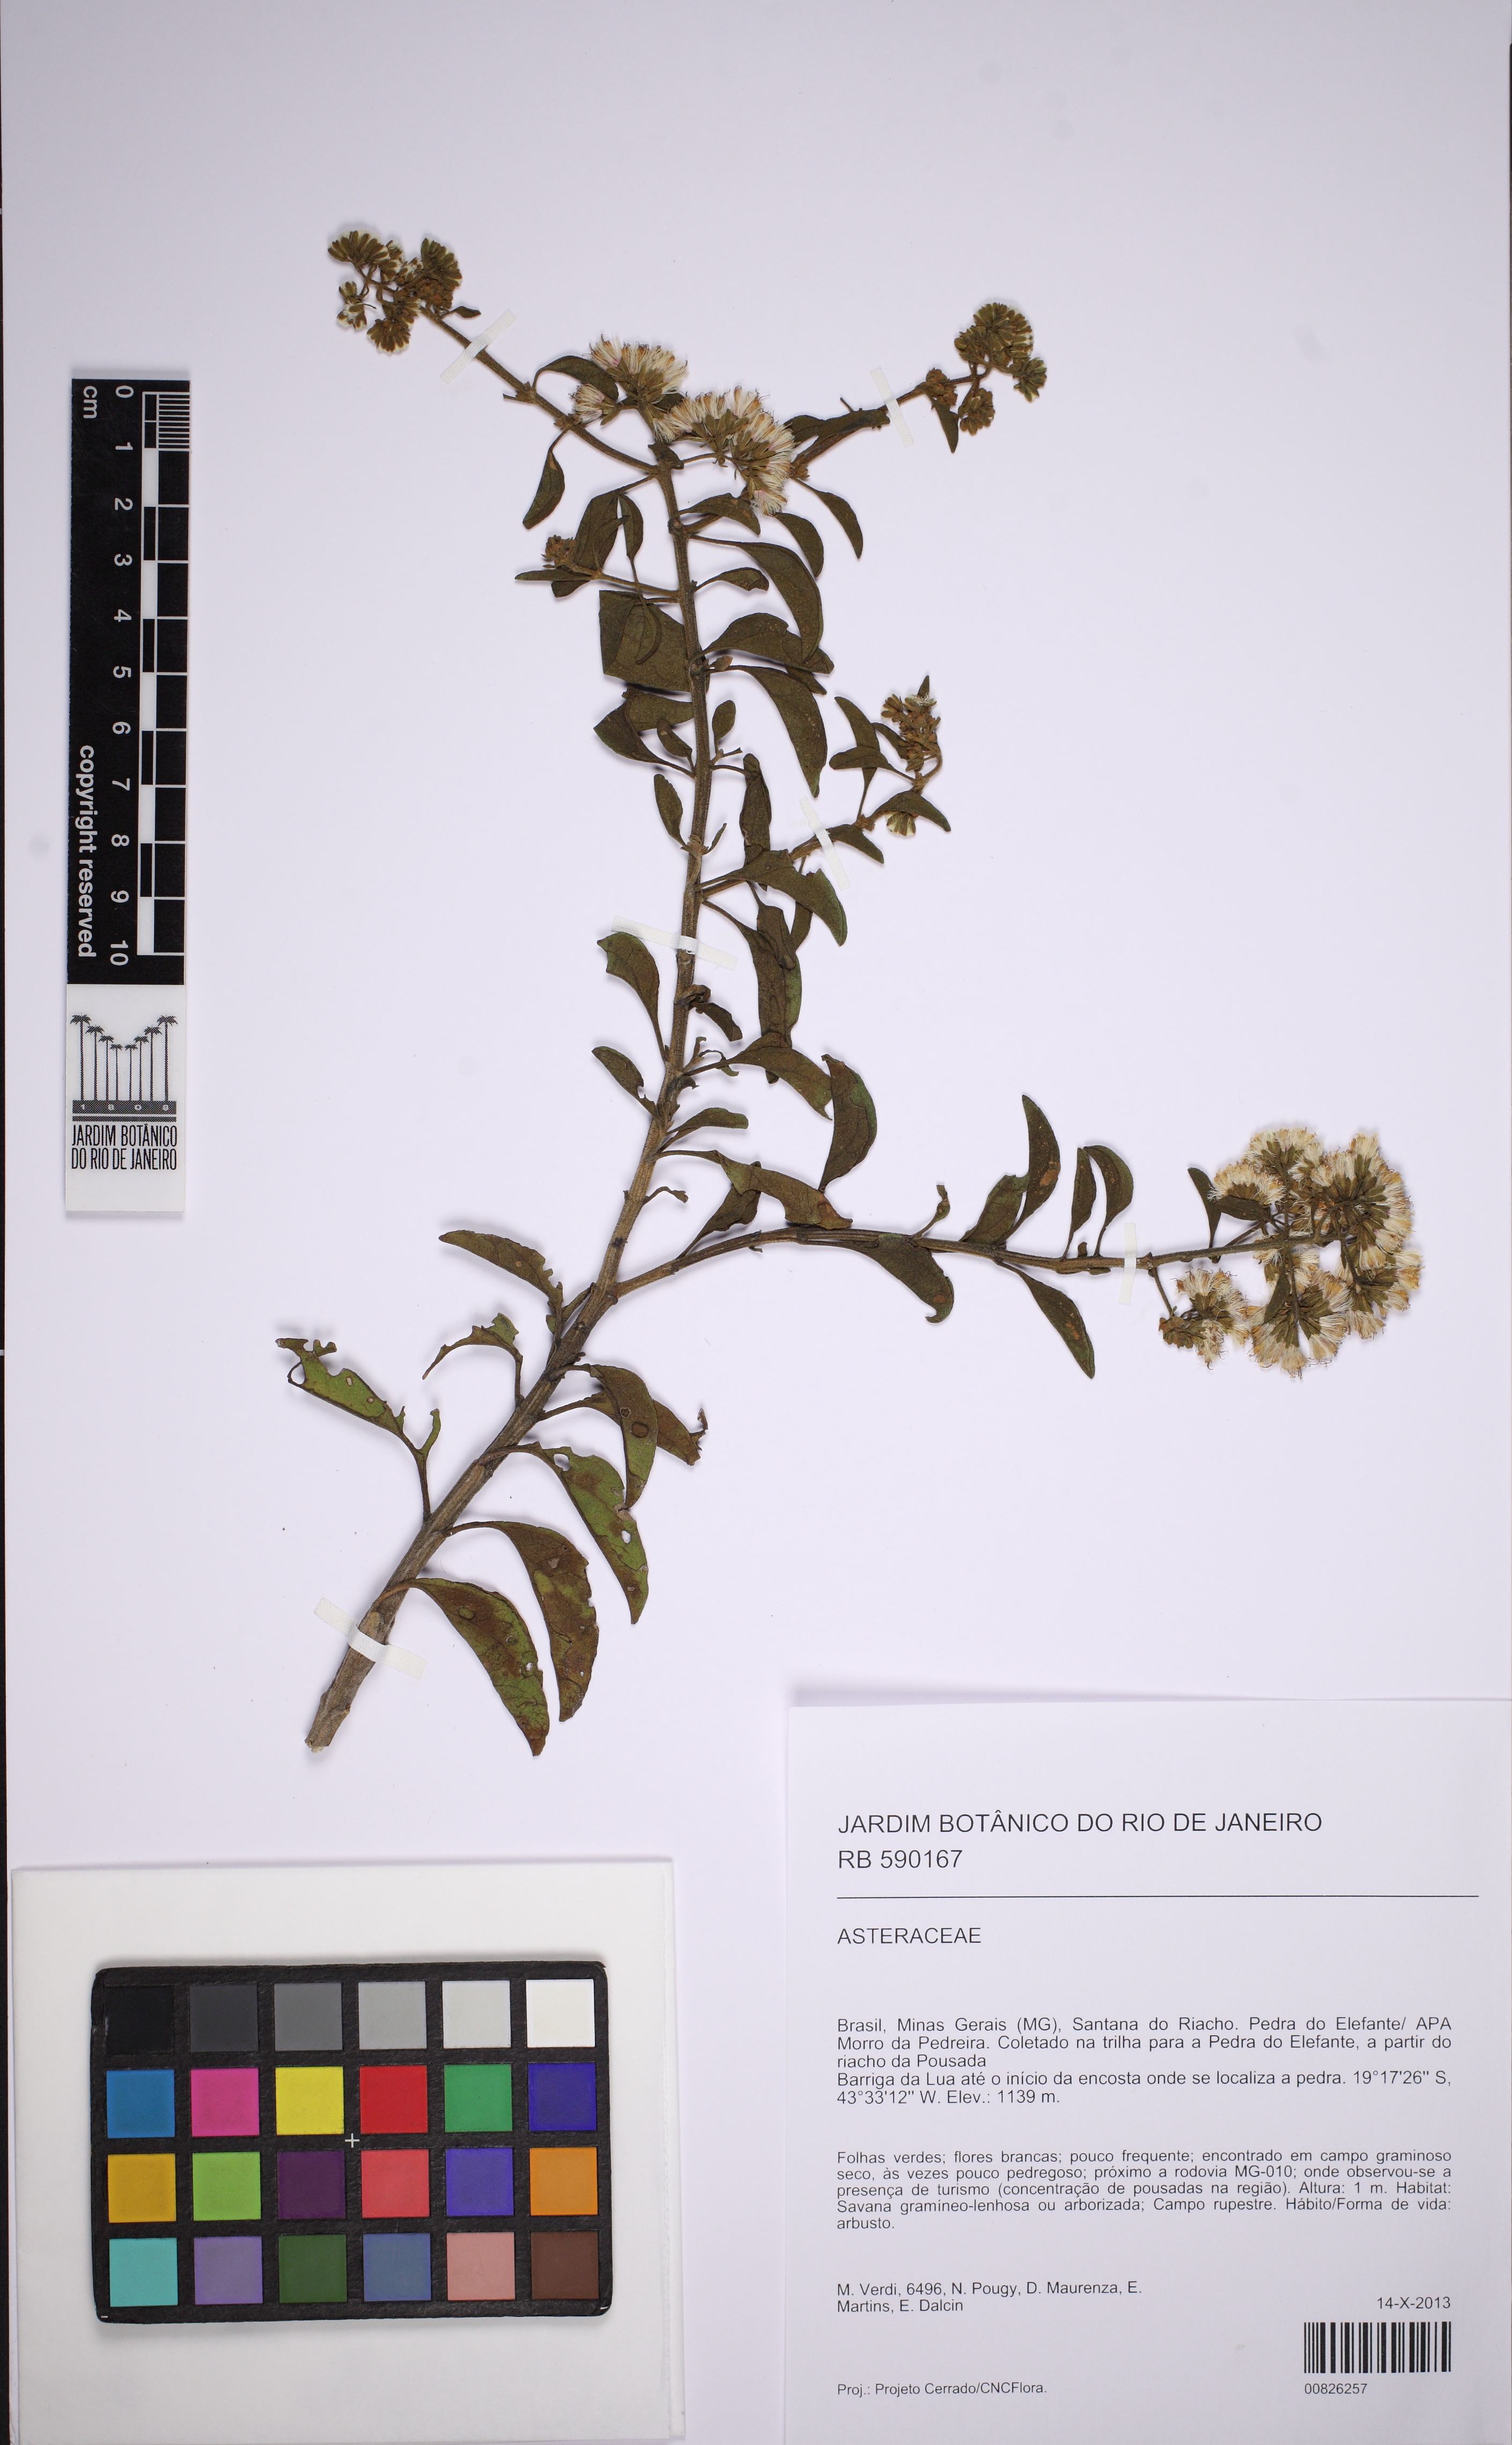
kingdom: Plantae
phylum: Tracheophyta
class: Magnoliopsida
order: Asterales
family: Asteraceae
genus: Mikania
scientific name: Mikania
